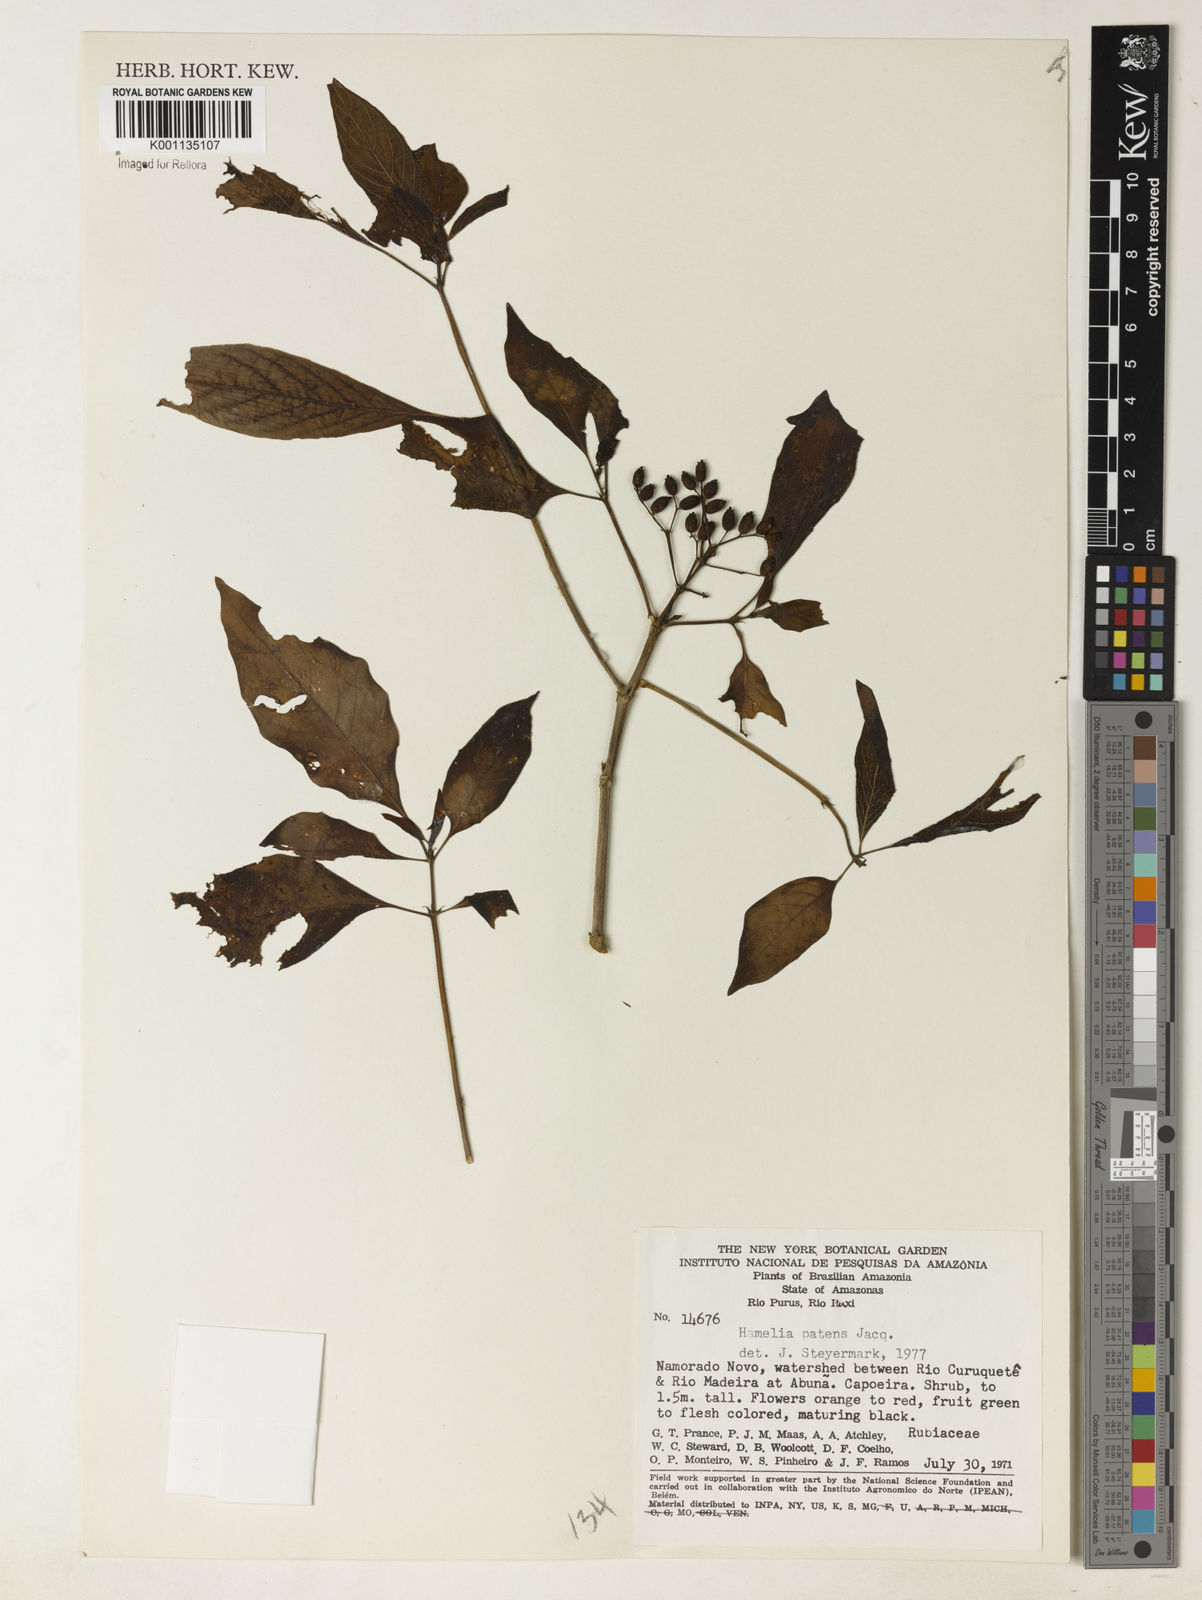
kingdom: Plantae
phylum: Tracheophyta
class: Magnoliopsida
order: Gentianales
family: Rubiaceae
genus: Hamelia
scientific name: Hamelia patens
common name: Redhead
